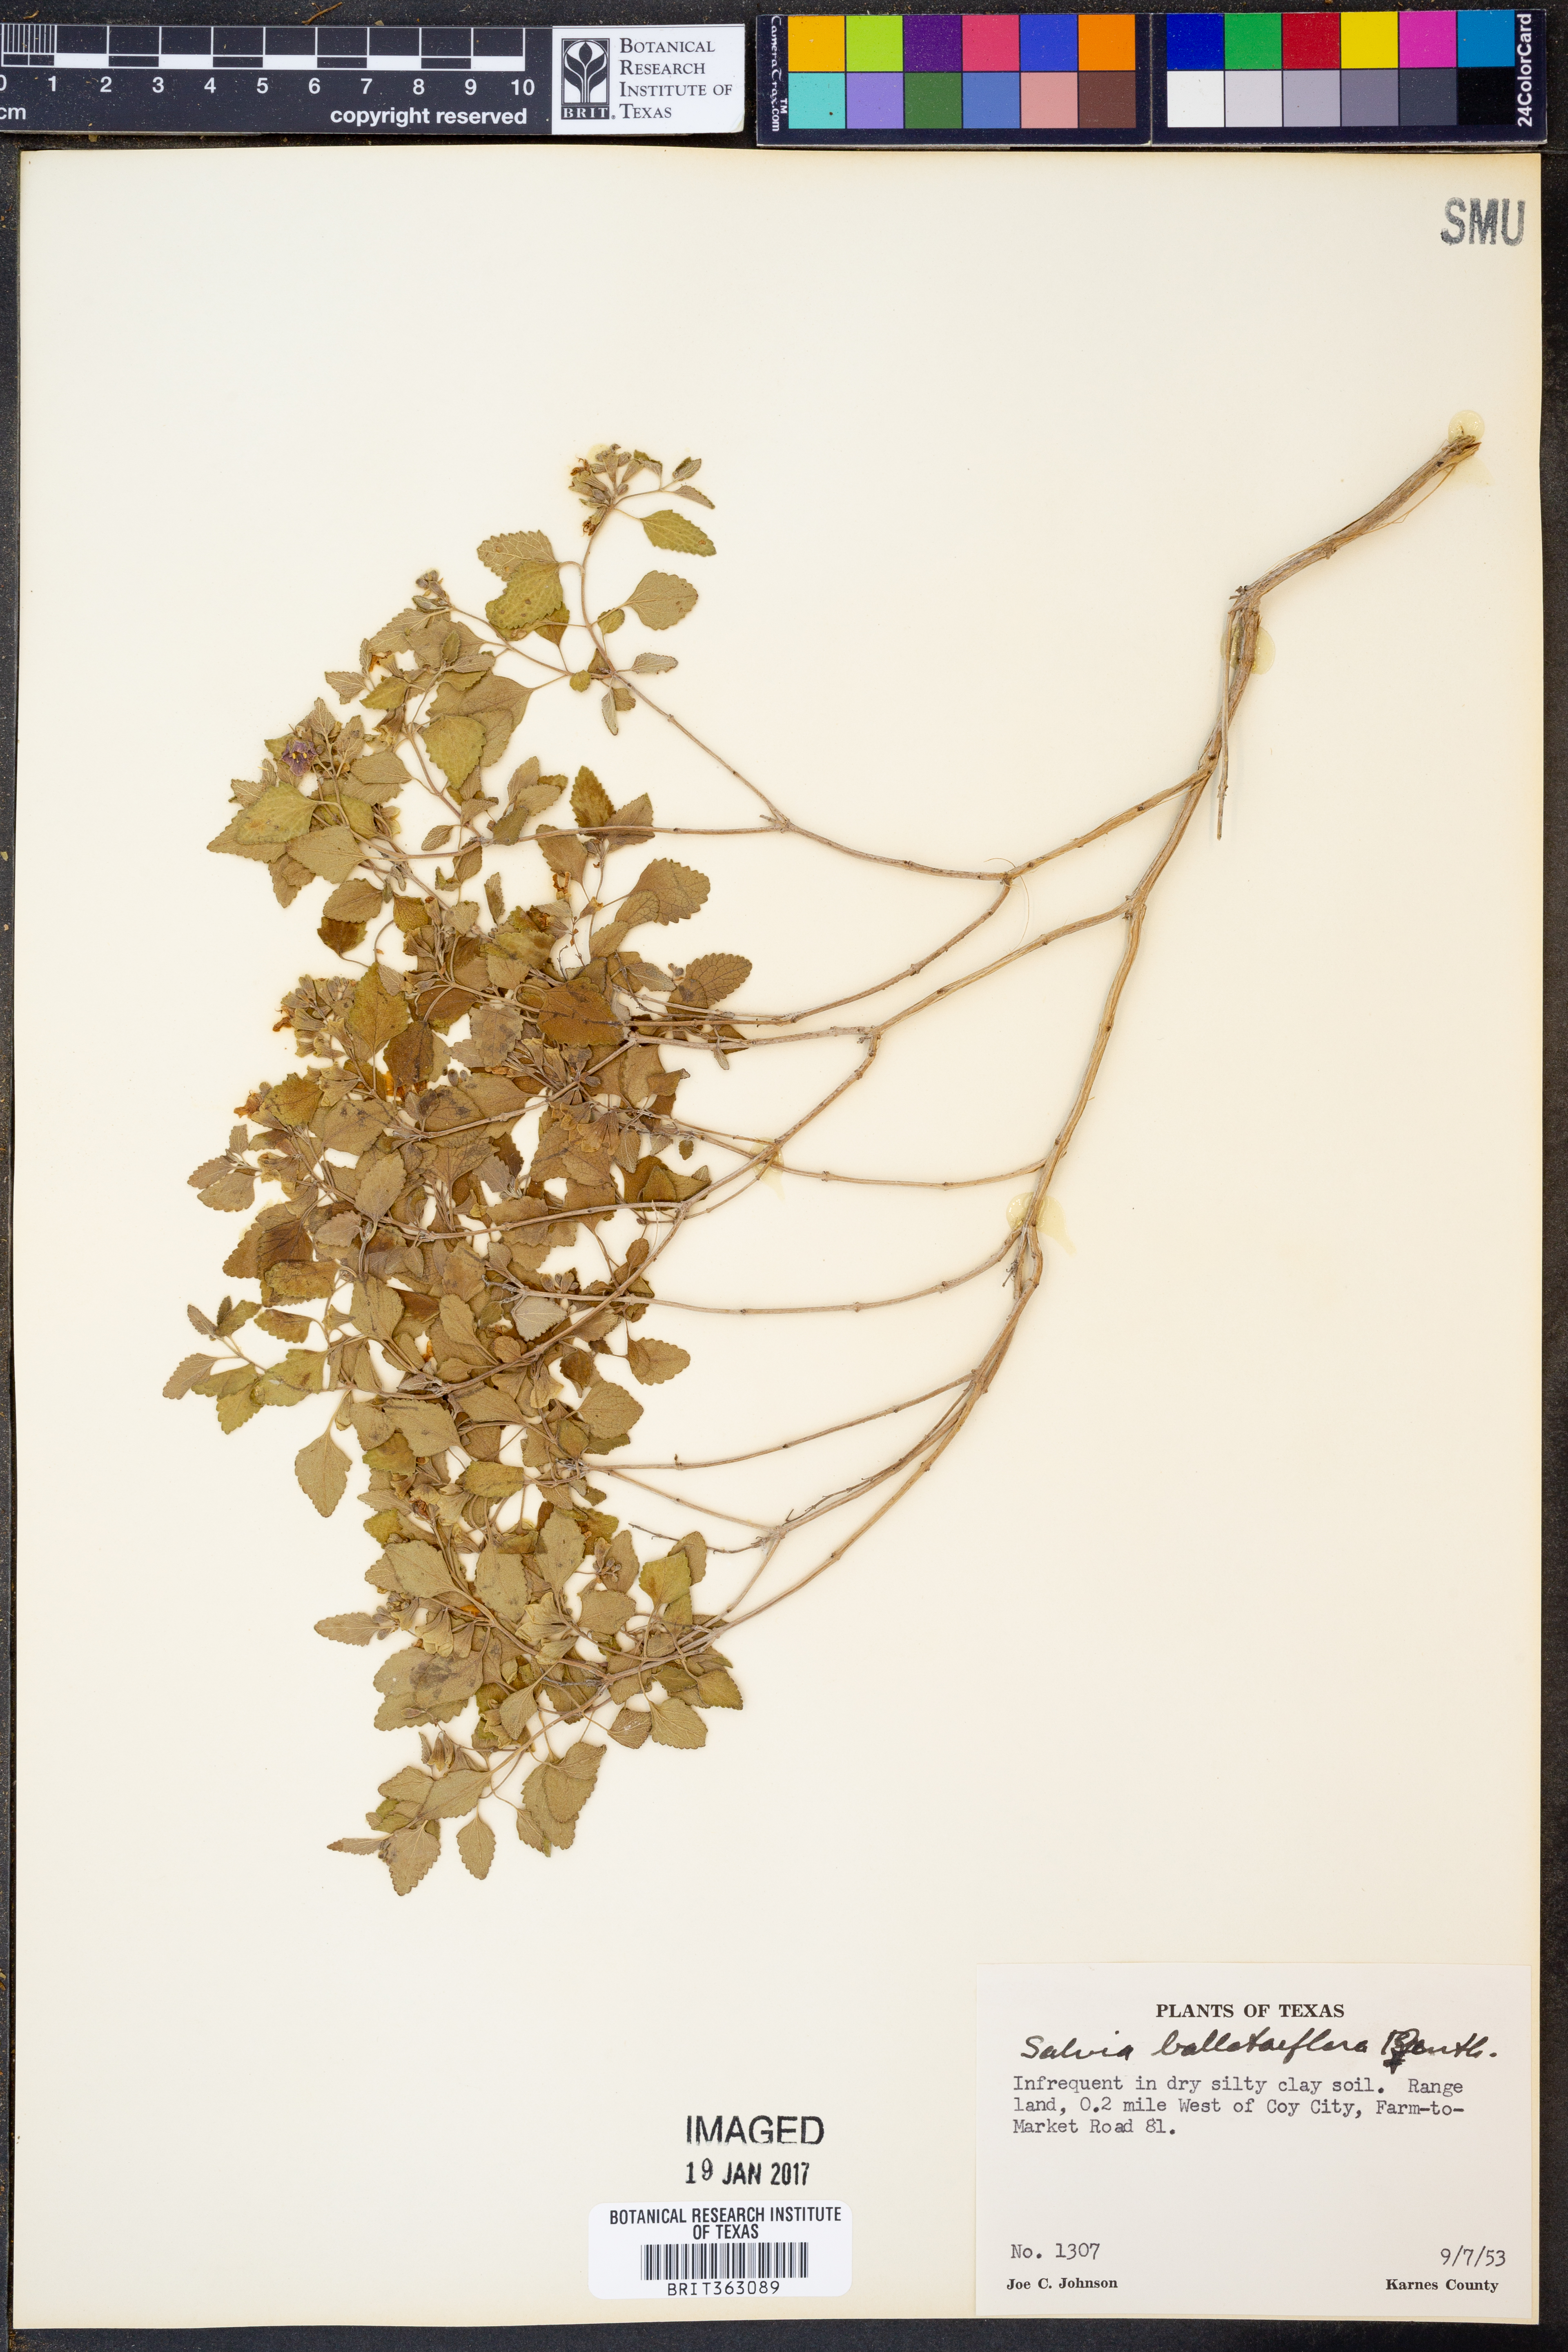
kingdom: Plantae
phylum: Tracheophyta
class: Magnoliopsida
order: Lamiales
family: Lamiaceae
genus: Salvia
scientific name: Salvia ballotiflora
